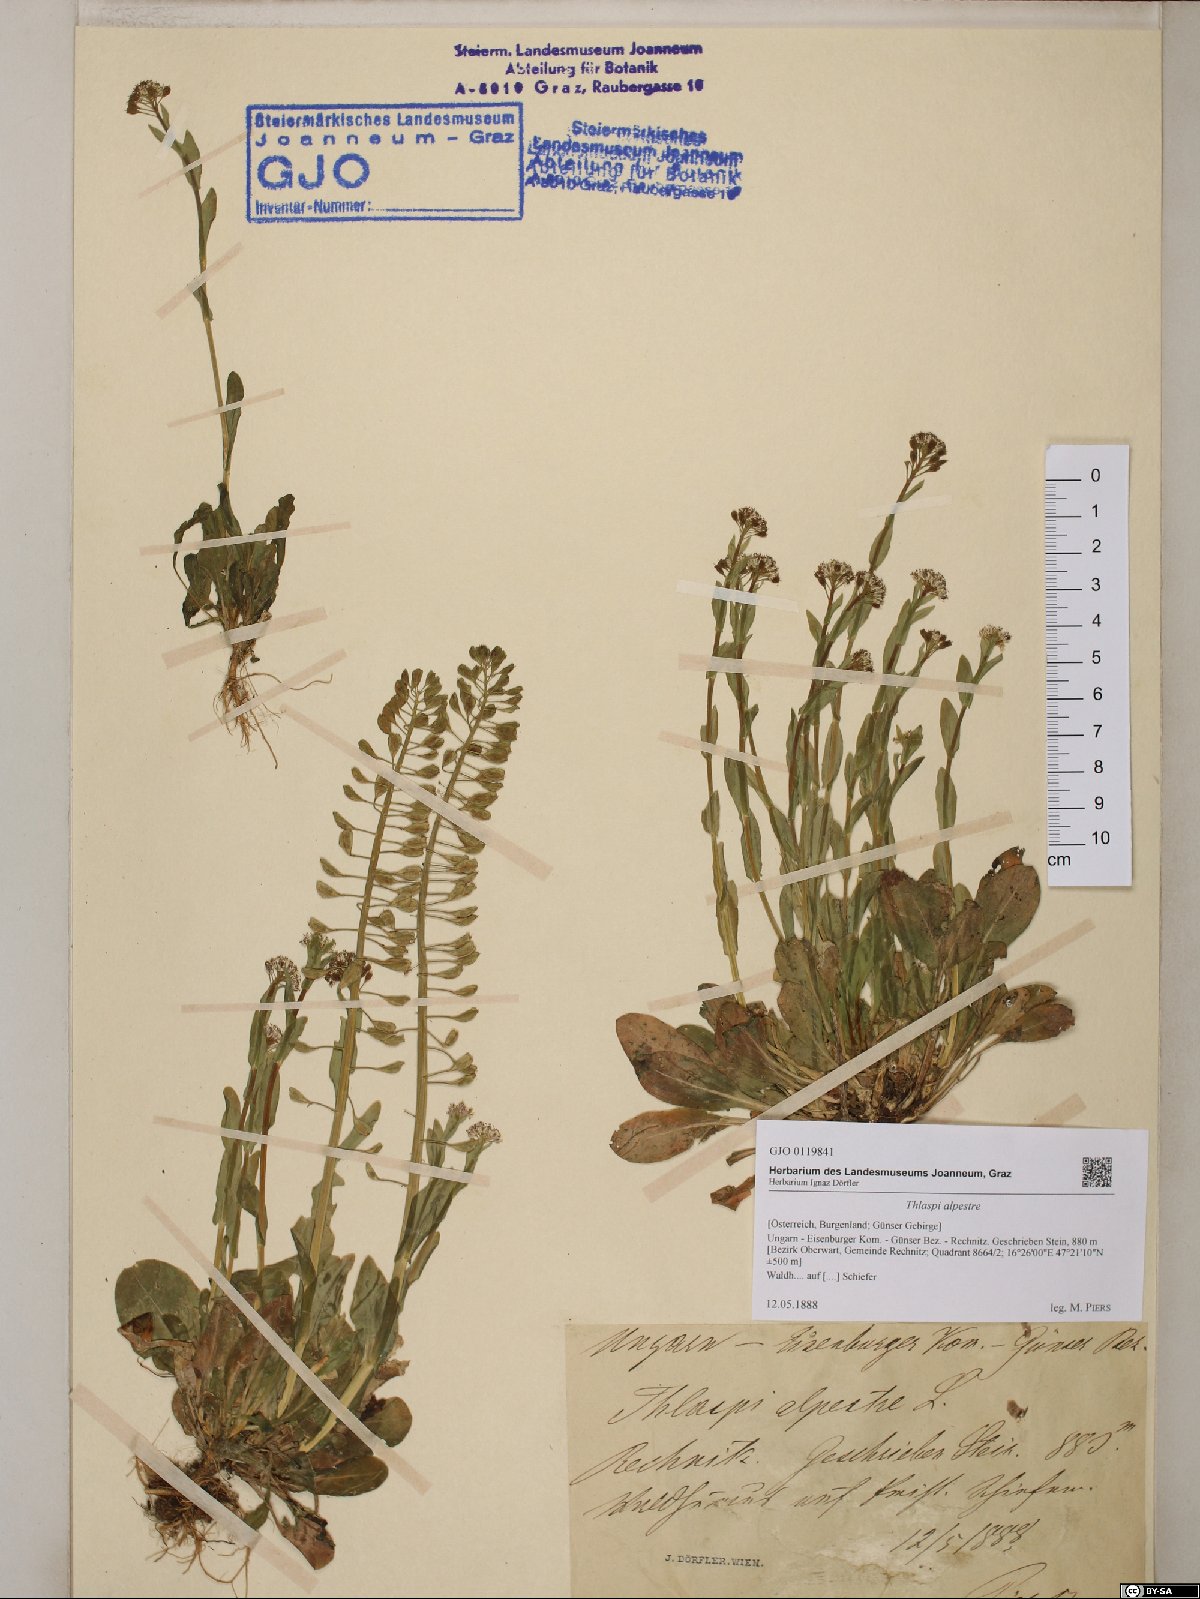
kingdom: Plantae
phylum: Tracheophyta
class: Magnoliopsida
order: Brassicales
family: Brassicaceae
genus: Noccaea
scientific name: Noccaea alpestris
